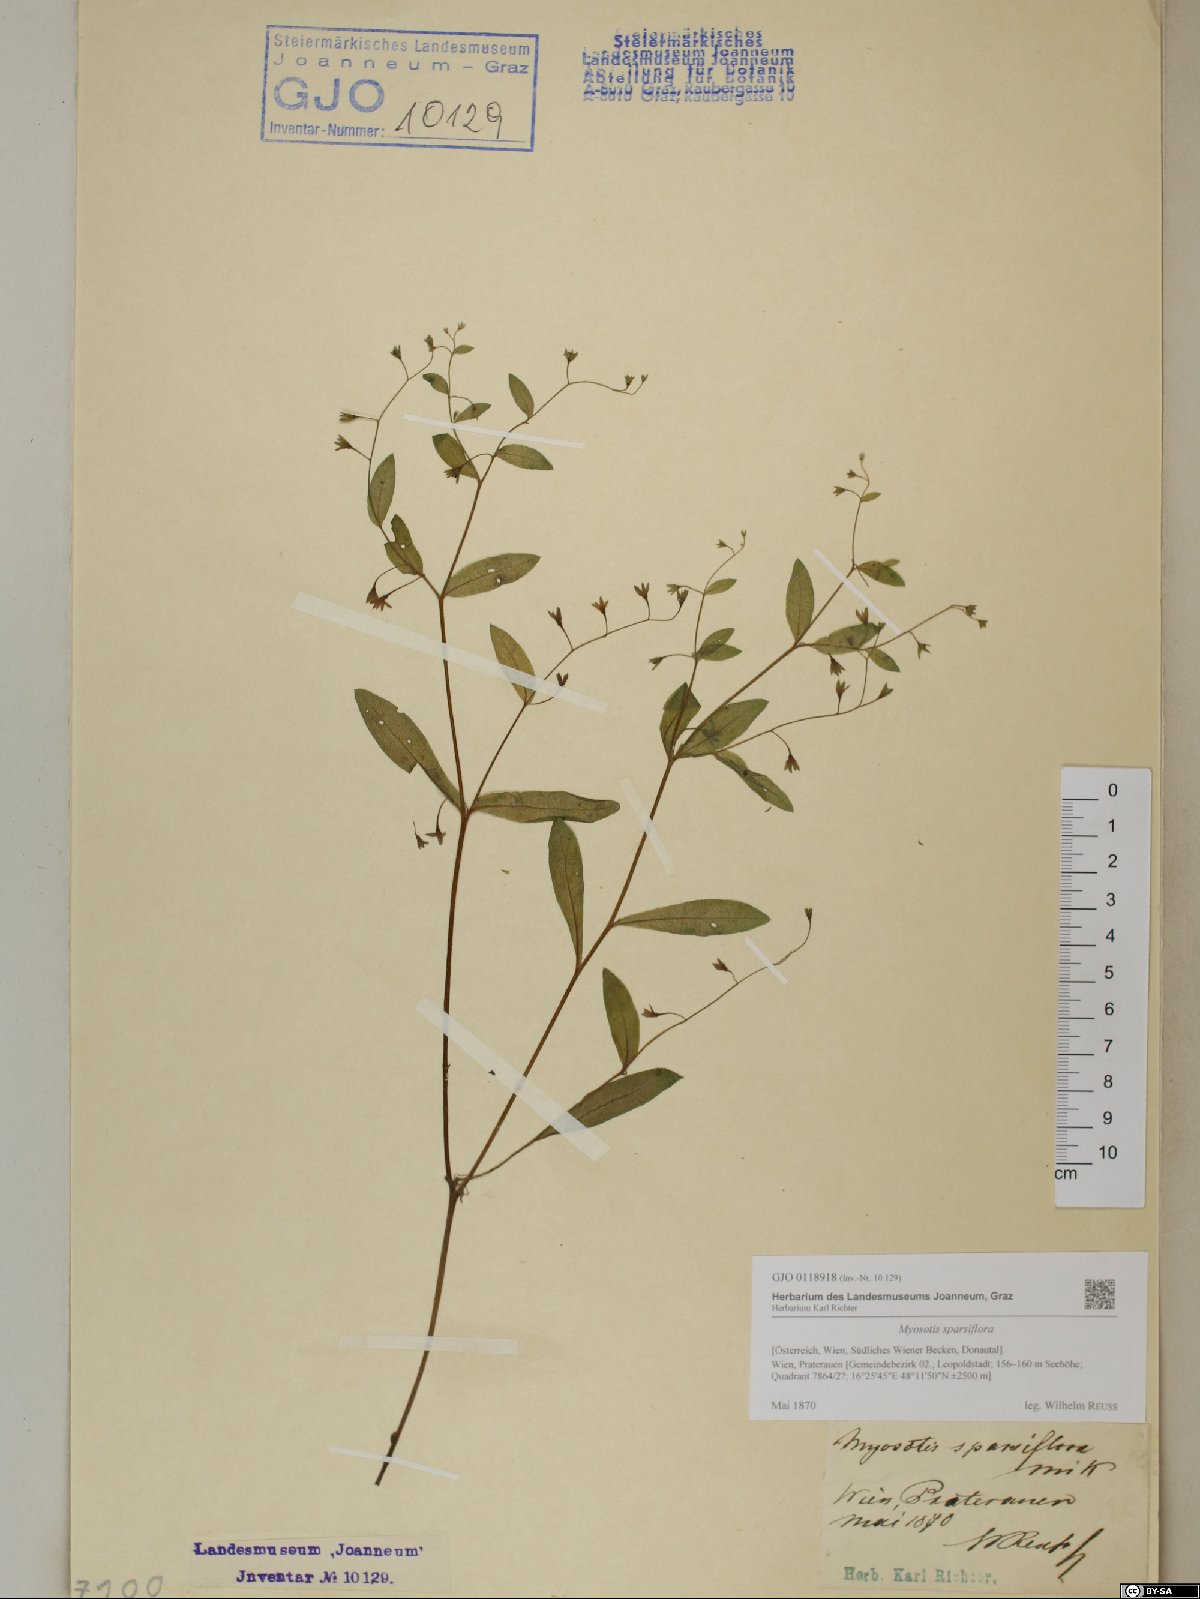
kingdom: Plantae
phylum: Tracheophyta
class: Magnoliopsida
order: Boraginales
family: Boraginaceae
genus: Myosotis
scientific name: Myosotis sparsiflora
